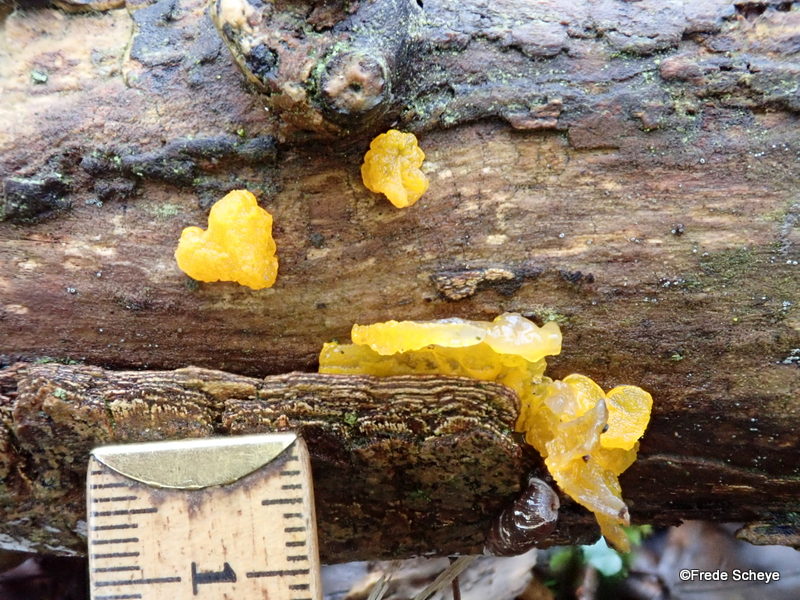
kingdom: Fungi
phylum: Basidiomycota
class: Tremellomycetes
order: Tremellales
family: Tremellaceae
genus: Tremella
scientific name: Tremella mesenterica
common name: gul bævresvamp
